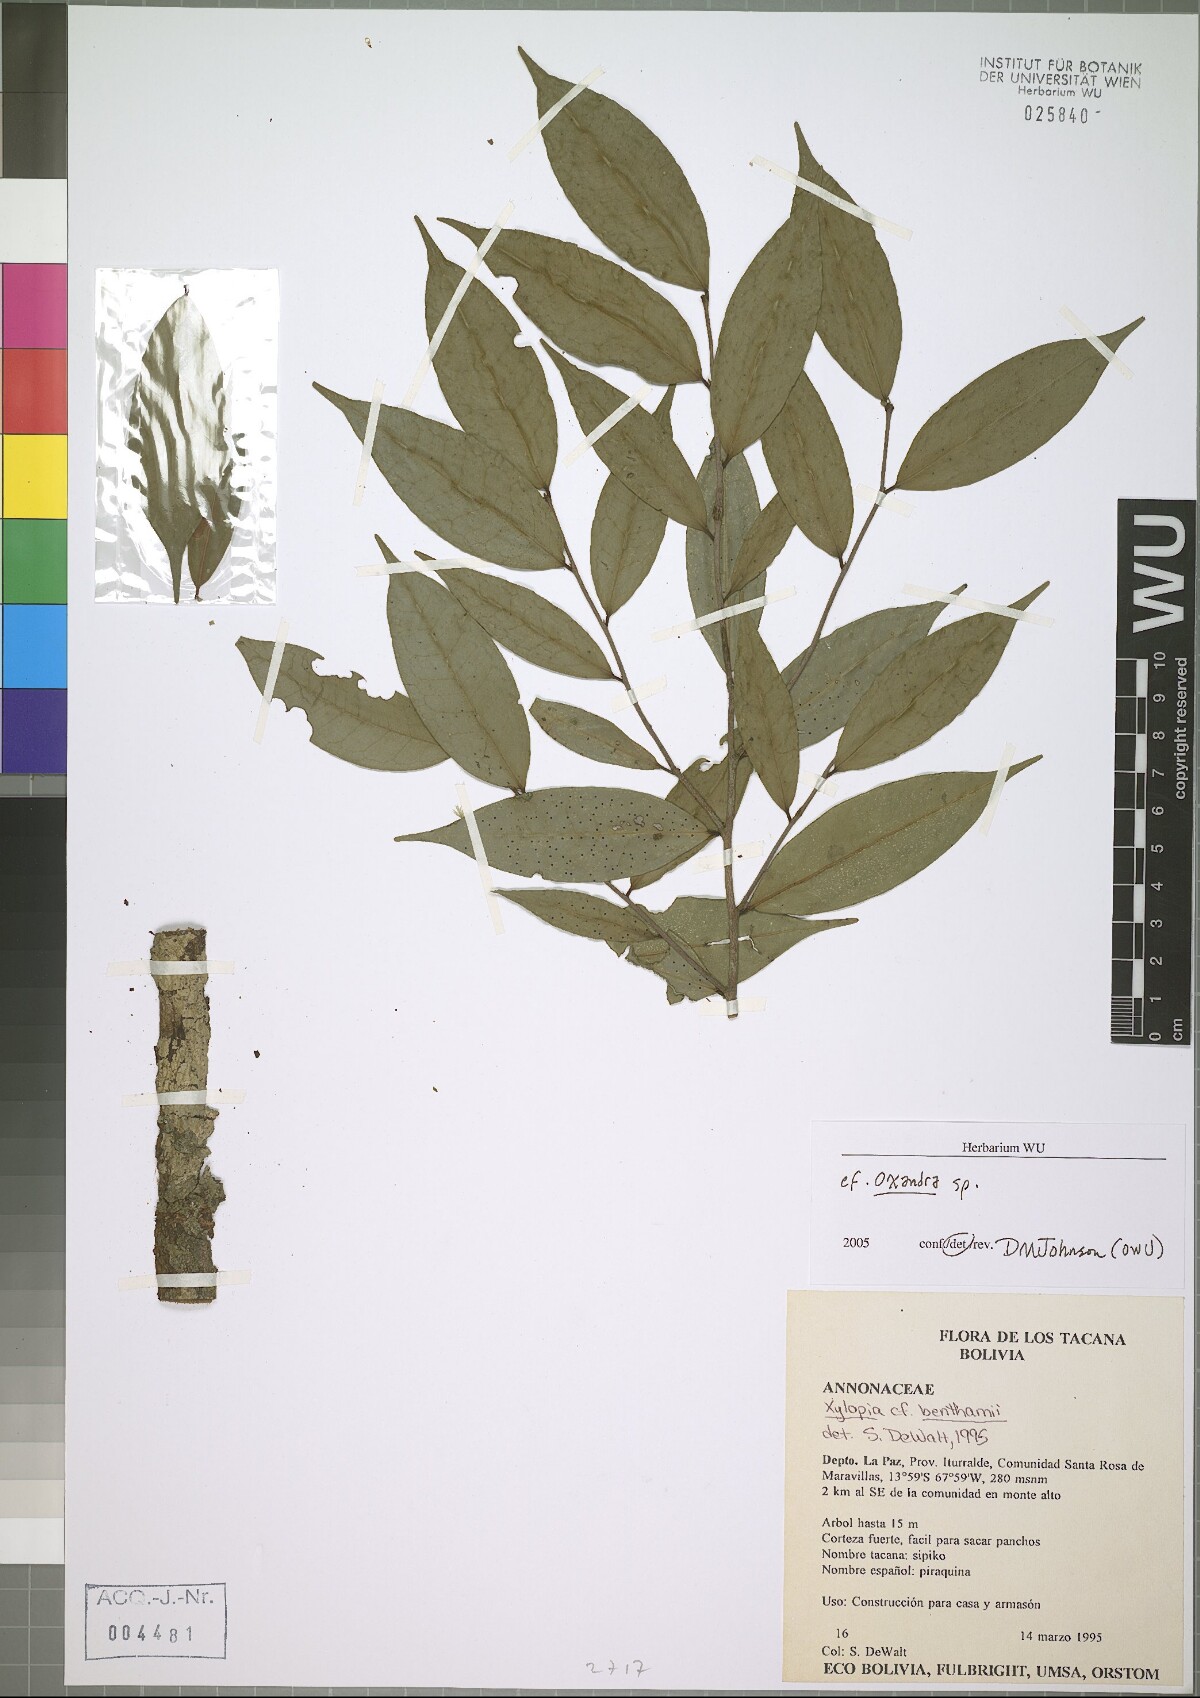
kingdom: Plantae
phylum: Tracheophyta
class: Magnoliopsida
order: Magnoliales
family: Annonaceae
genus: Oxandra
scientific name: Oxandra
